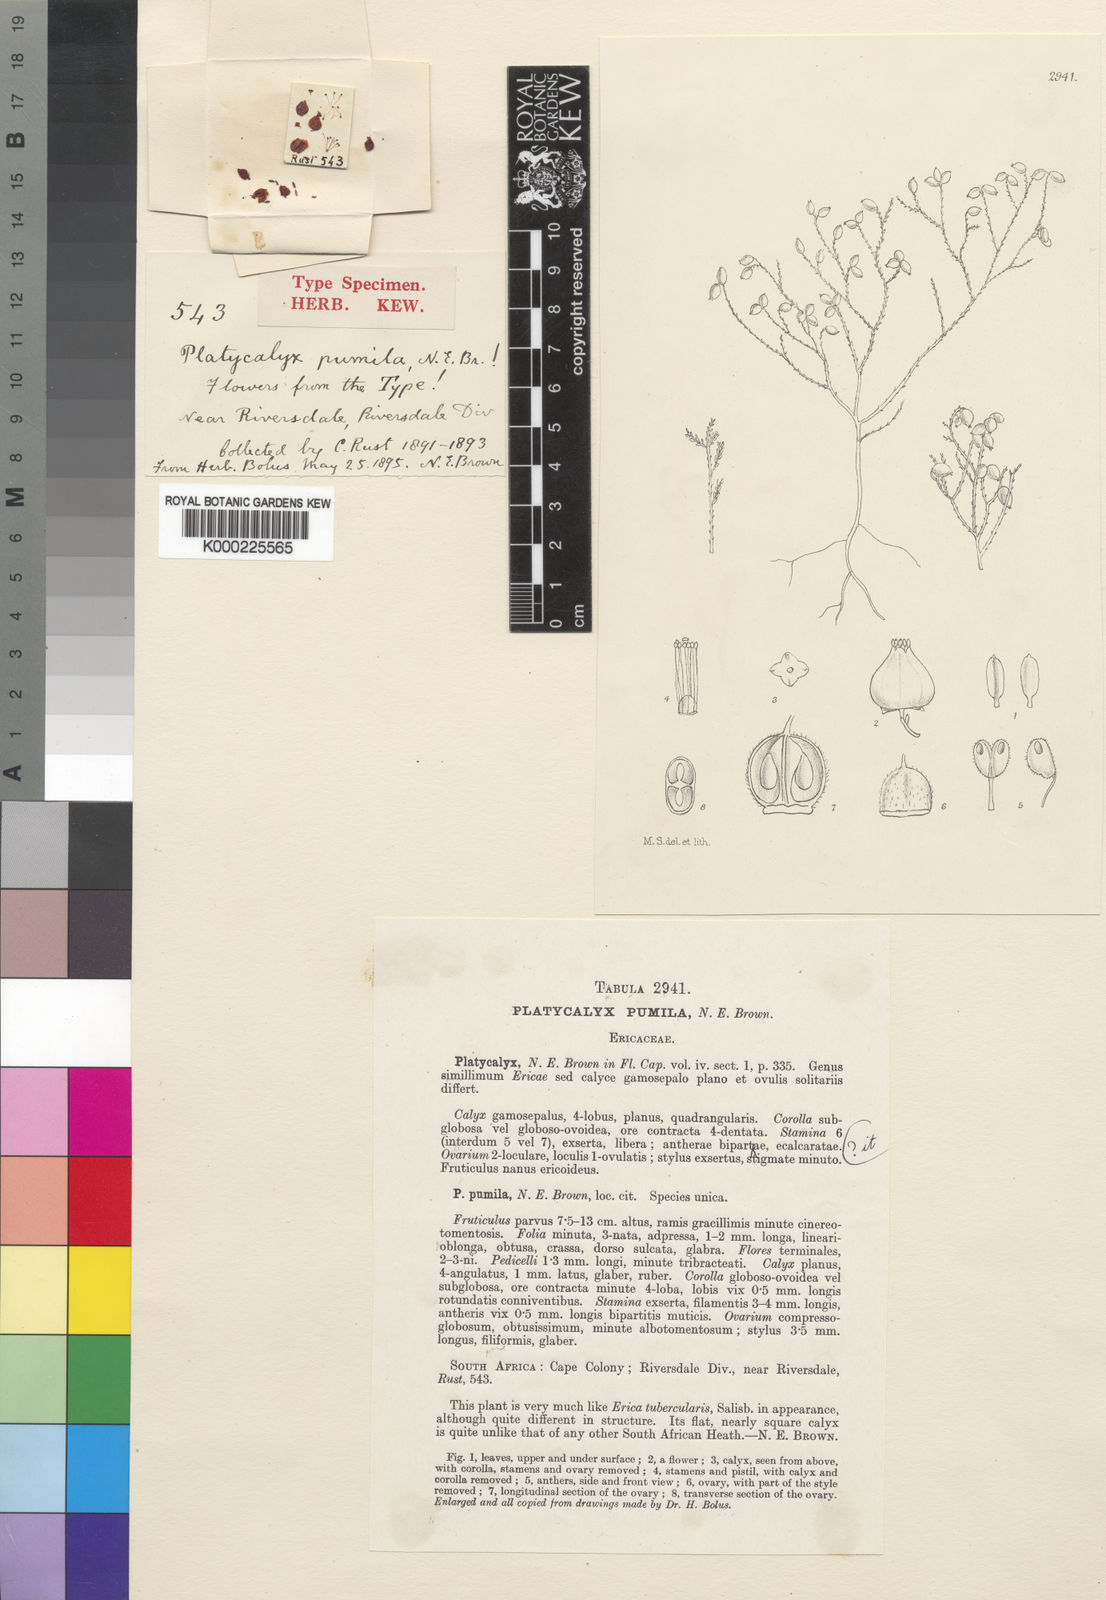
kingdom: Plantae
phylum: Tracheophyta
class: Magnoliopsida
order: Ericales
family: Ericaceae
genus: Erica
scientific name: Erica platycalyx
